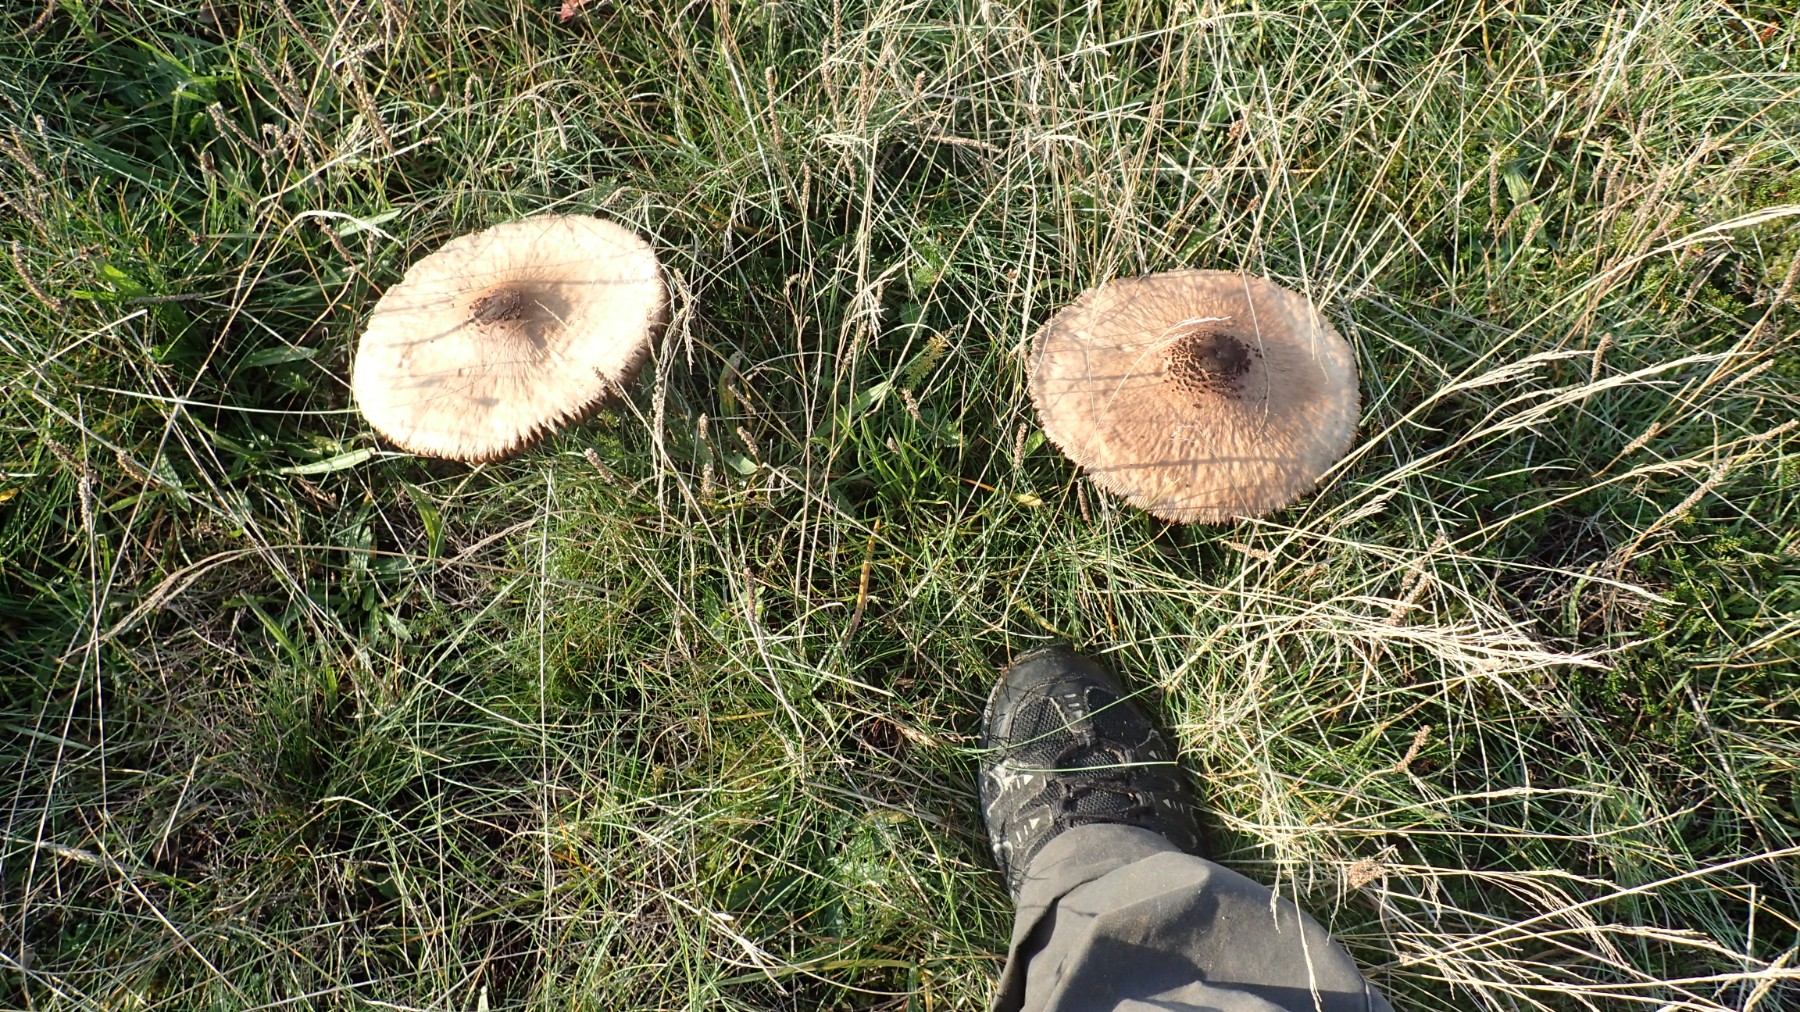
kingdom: Fungi
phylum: Basidiomycota
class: Agaricomycetes
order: Agaricales
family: Agaricaceae
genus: Macrolepiota
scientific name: Macrolepiota procera
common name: stor kæmpeparasolhat
